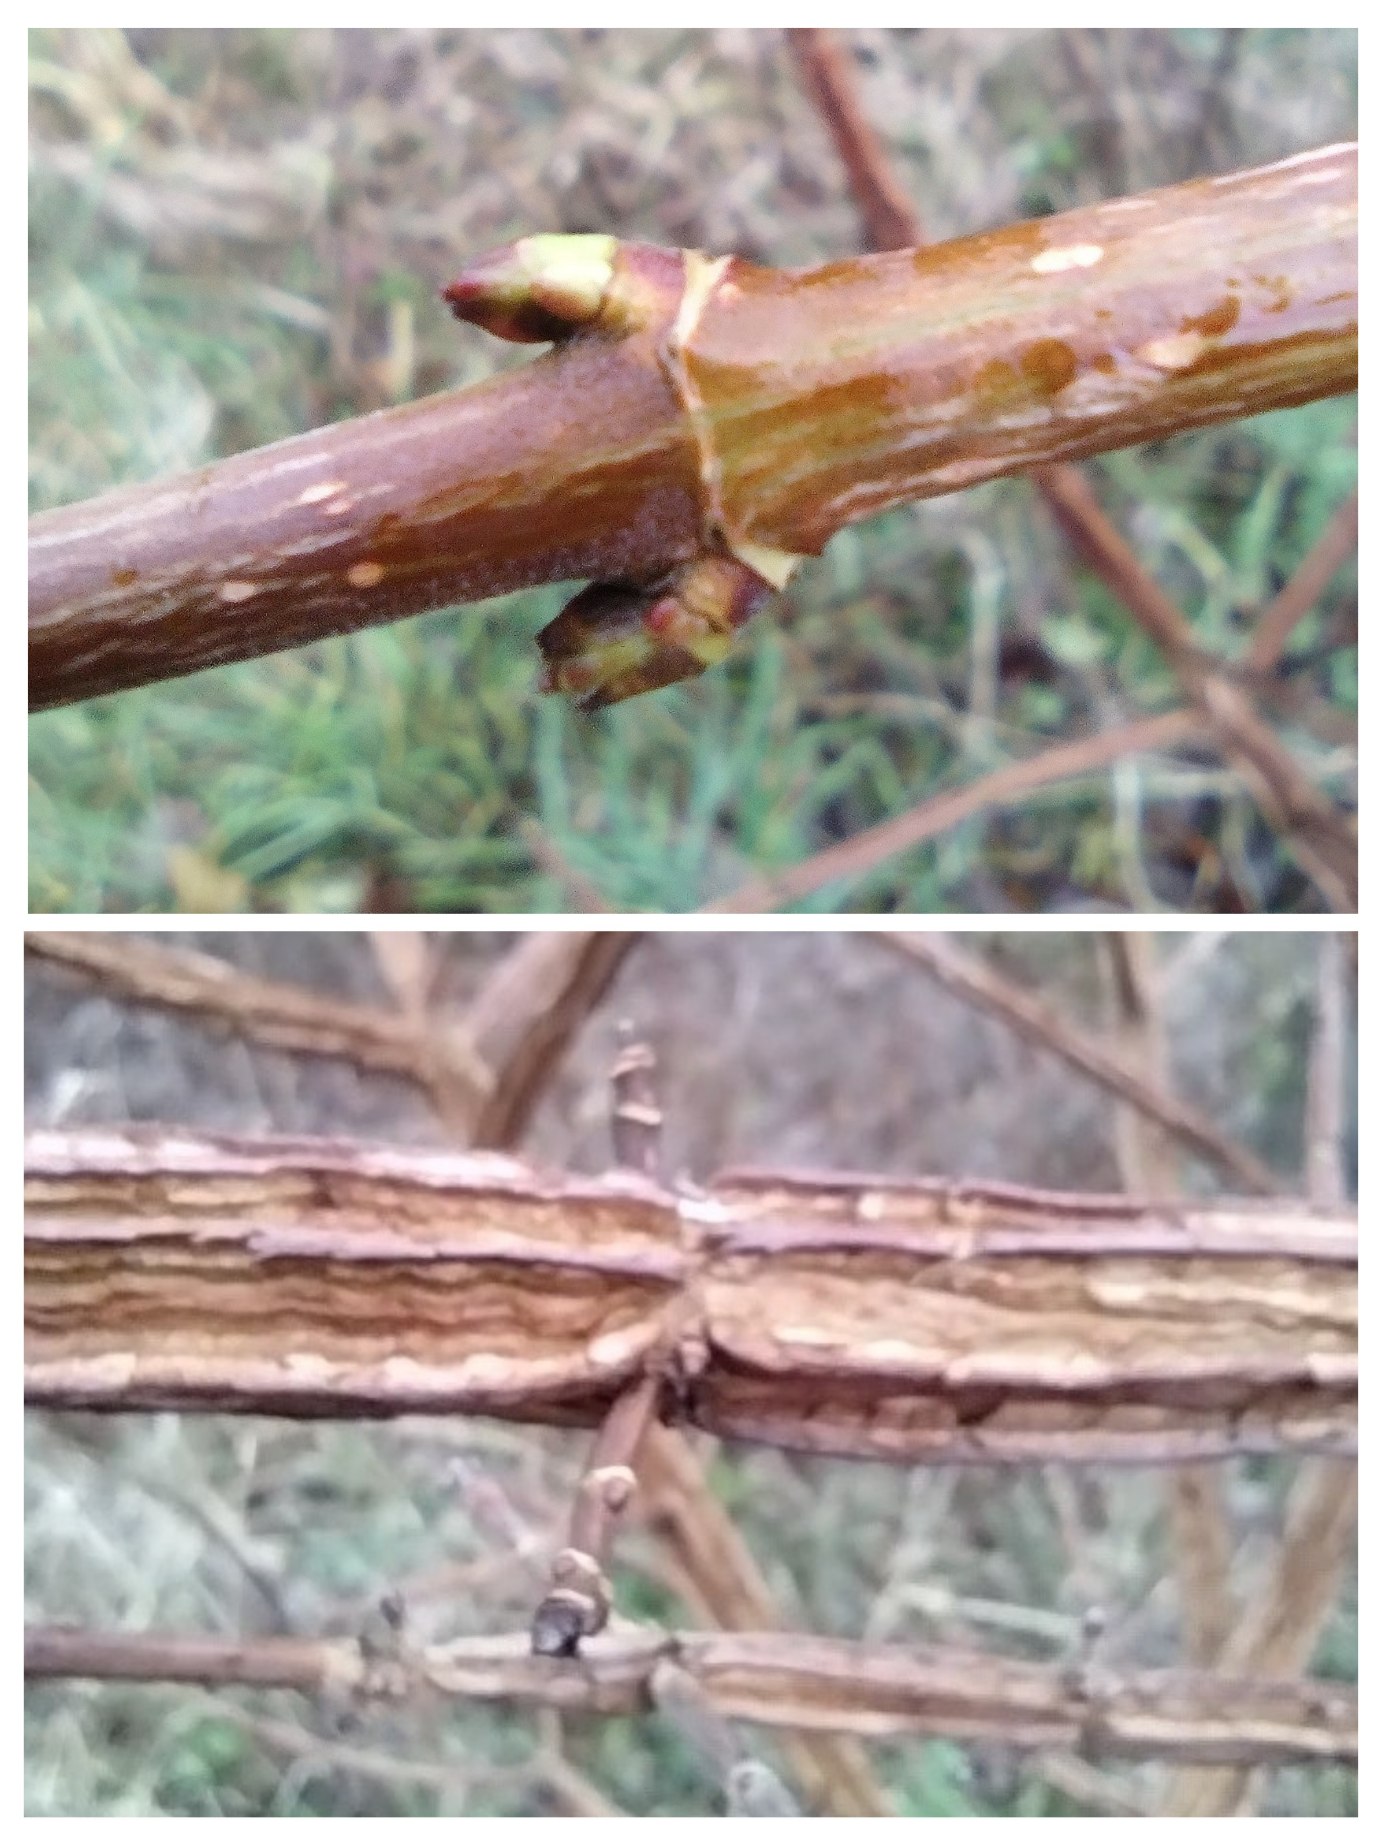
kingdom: Plantae
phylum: Tracheophyta
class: Magnoliopsida
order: Sapindales
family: Sapindaceae
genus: Acer
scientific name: Acer campestre
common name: Navr
